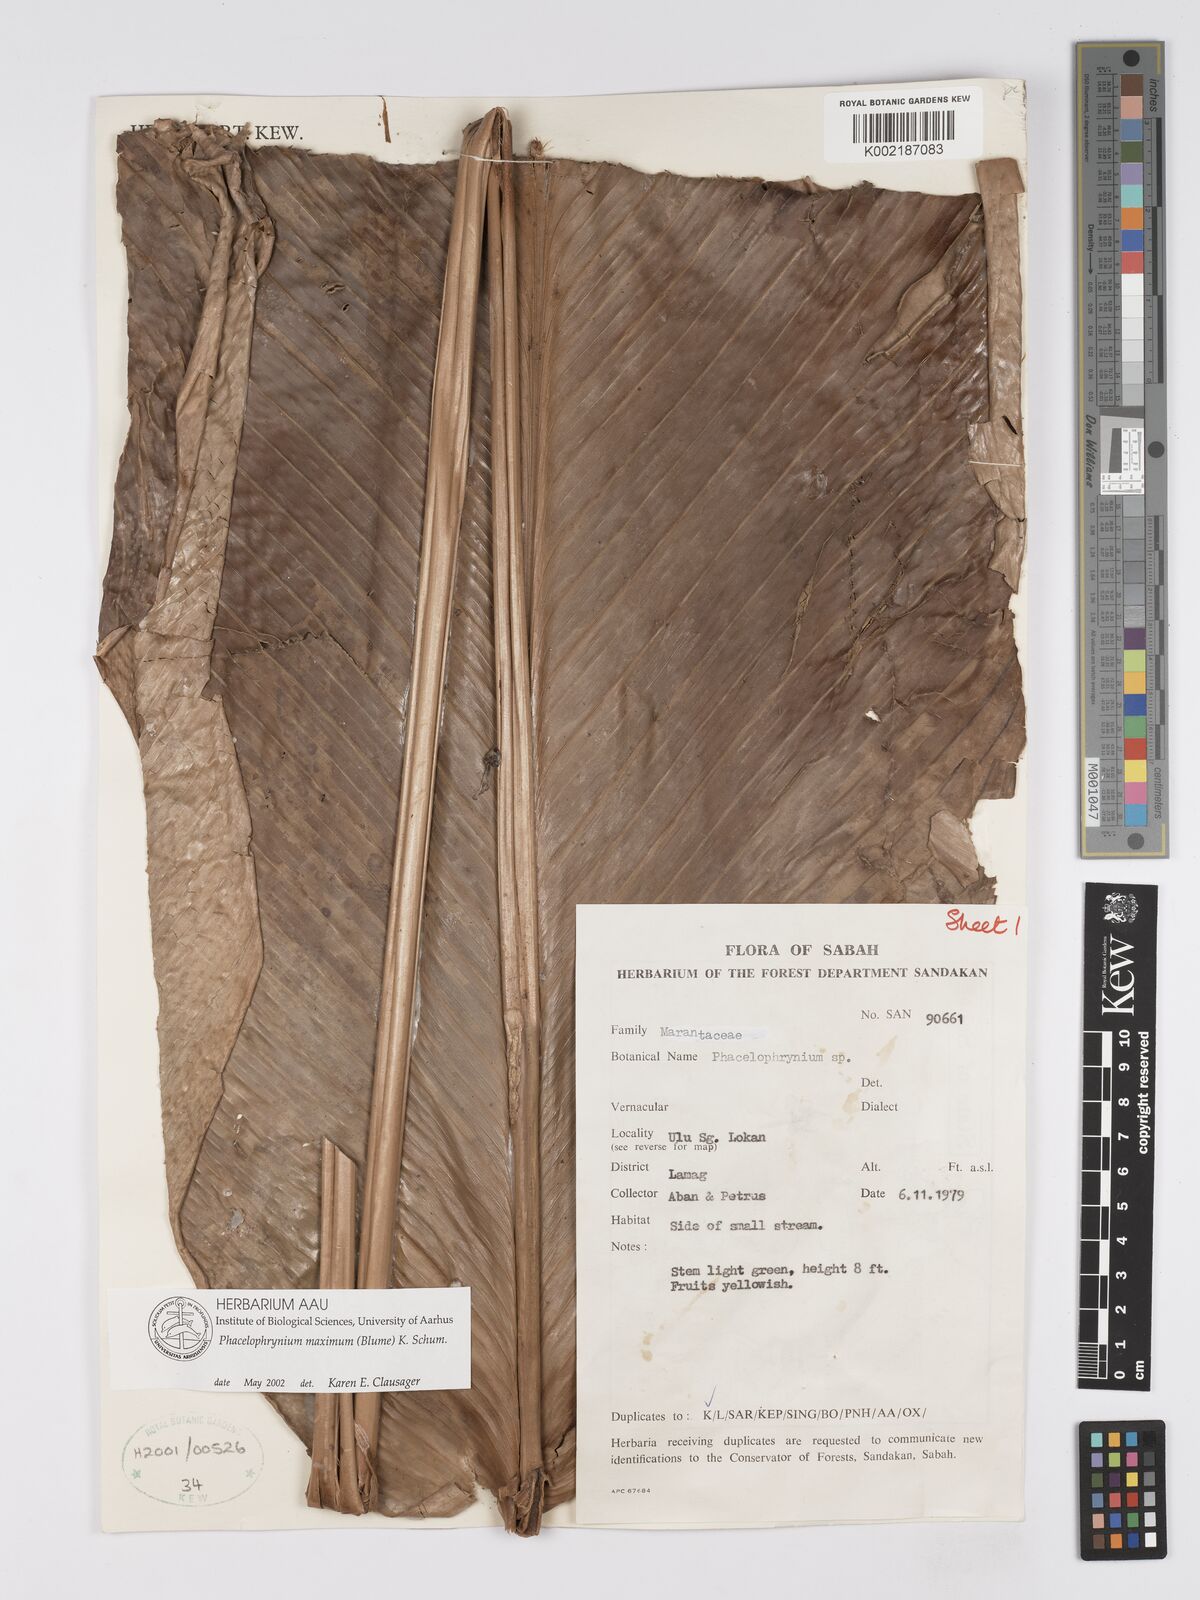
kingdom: Plantae
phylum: Tracheophyta
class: Liliopsida
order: Zingiberales
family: Marantaceae
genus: Phrynium
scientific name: Phrynium maximum
